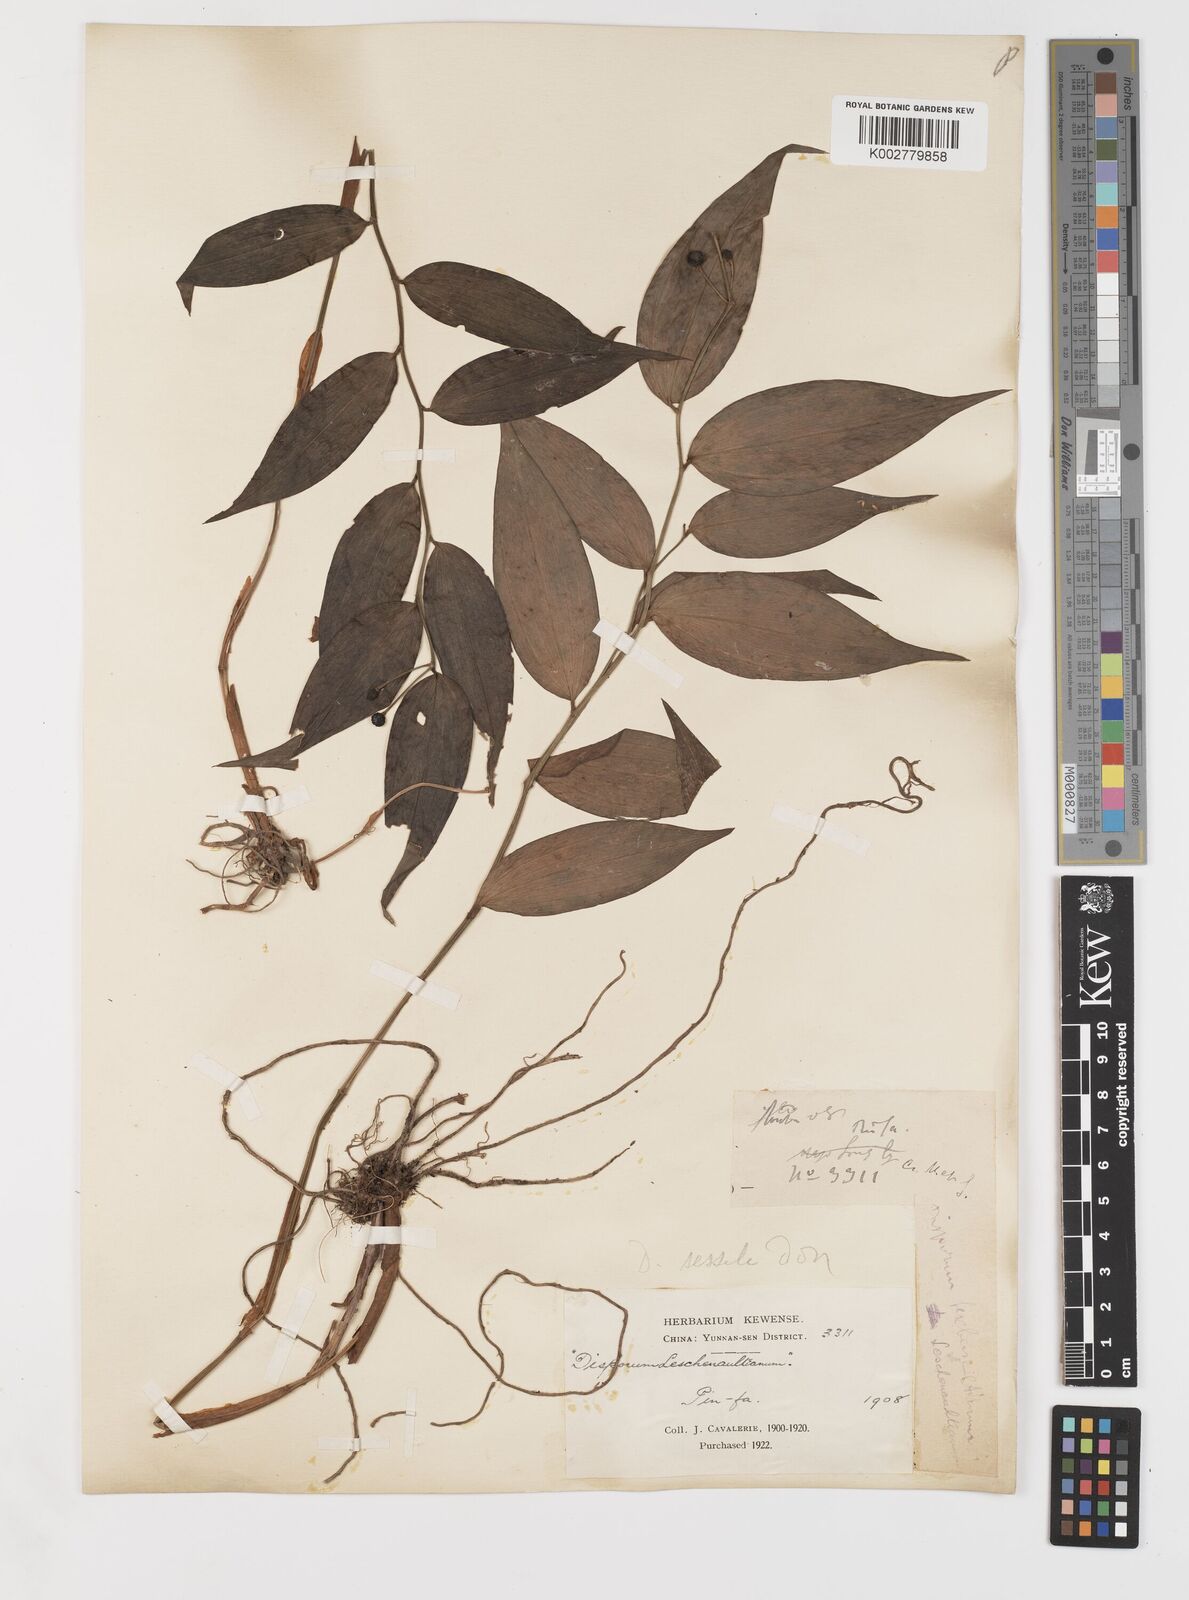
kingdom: Plantae
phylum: Tracheophyta
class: Liliopsida
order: Liliales
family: Colchicaceae
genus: Disporum
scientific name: Disporum
